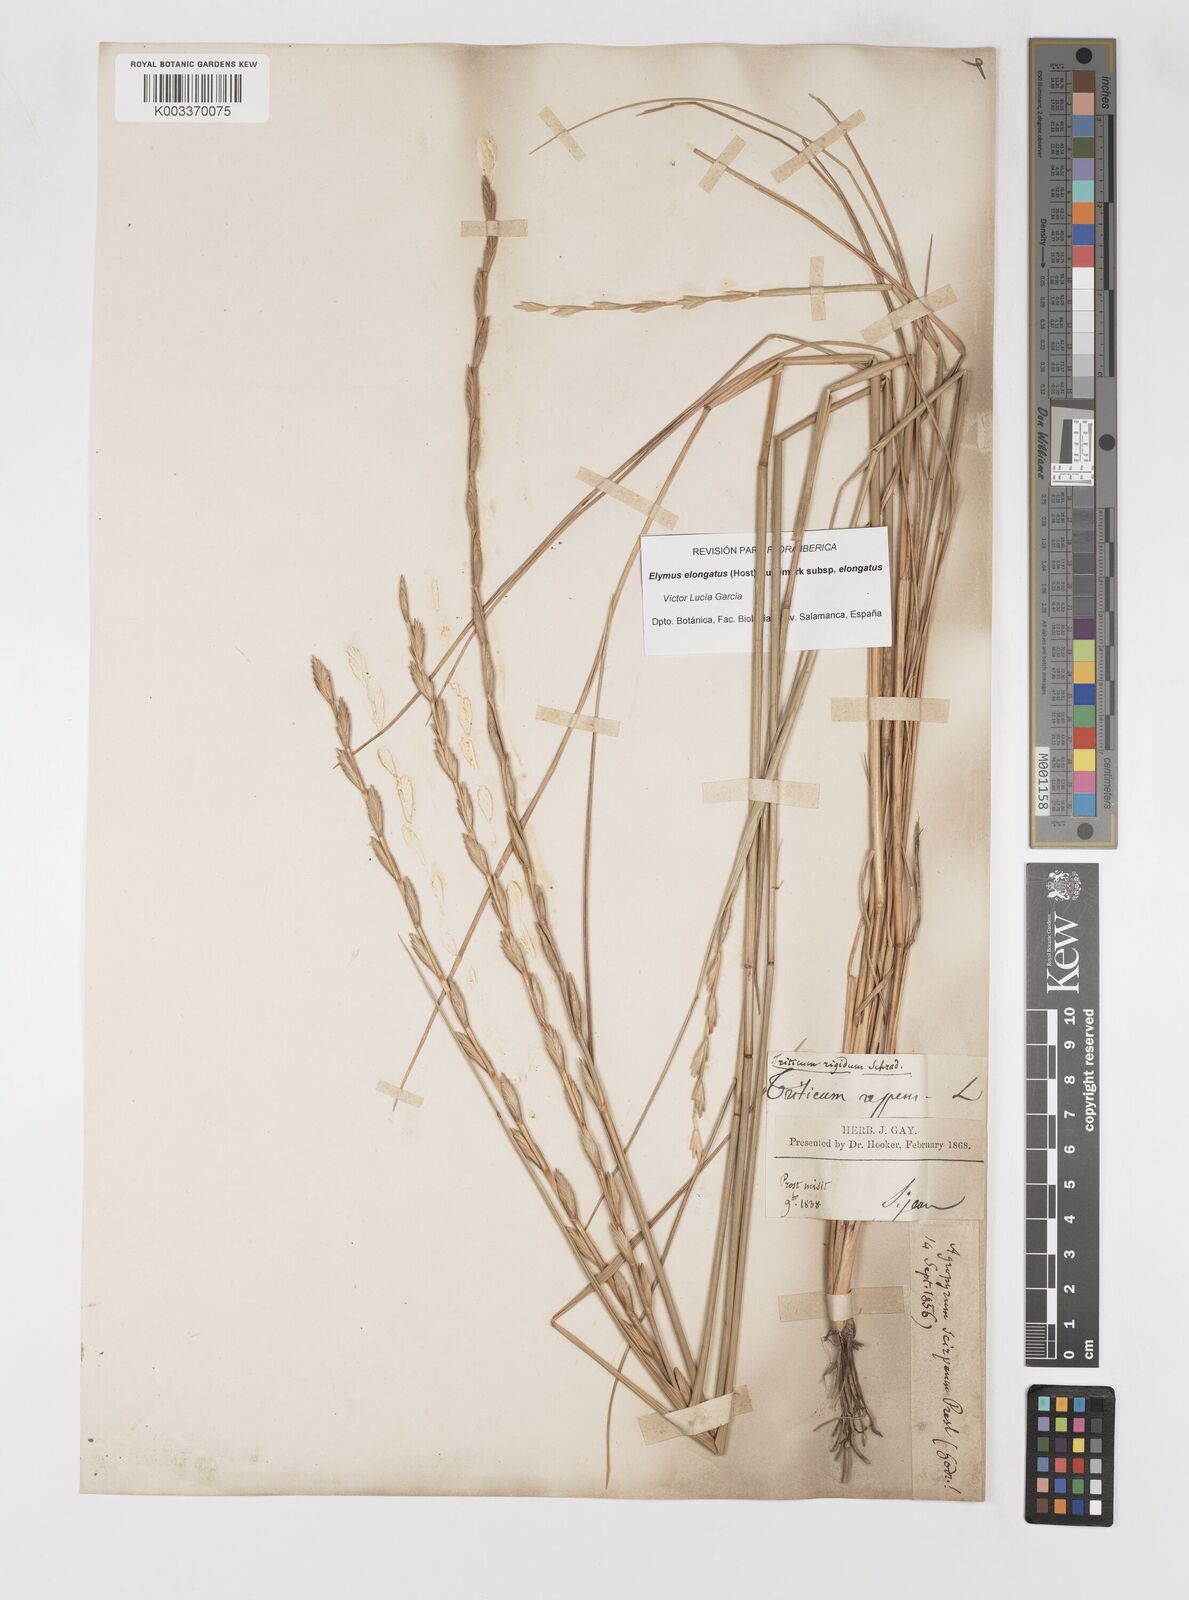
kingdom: Plantae
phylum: Tracheophyta
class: Liliopsida
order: Poales
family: Poaceae
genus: Thinopyrum
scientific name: Thinopyrum elongatum
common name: Tall wheatgrass
